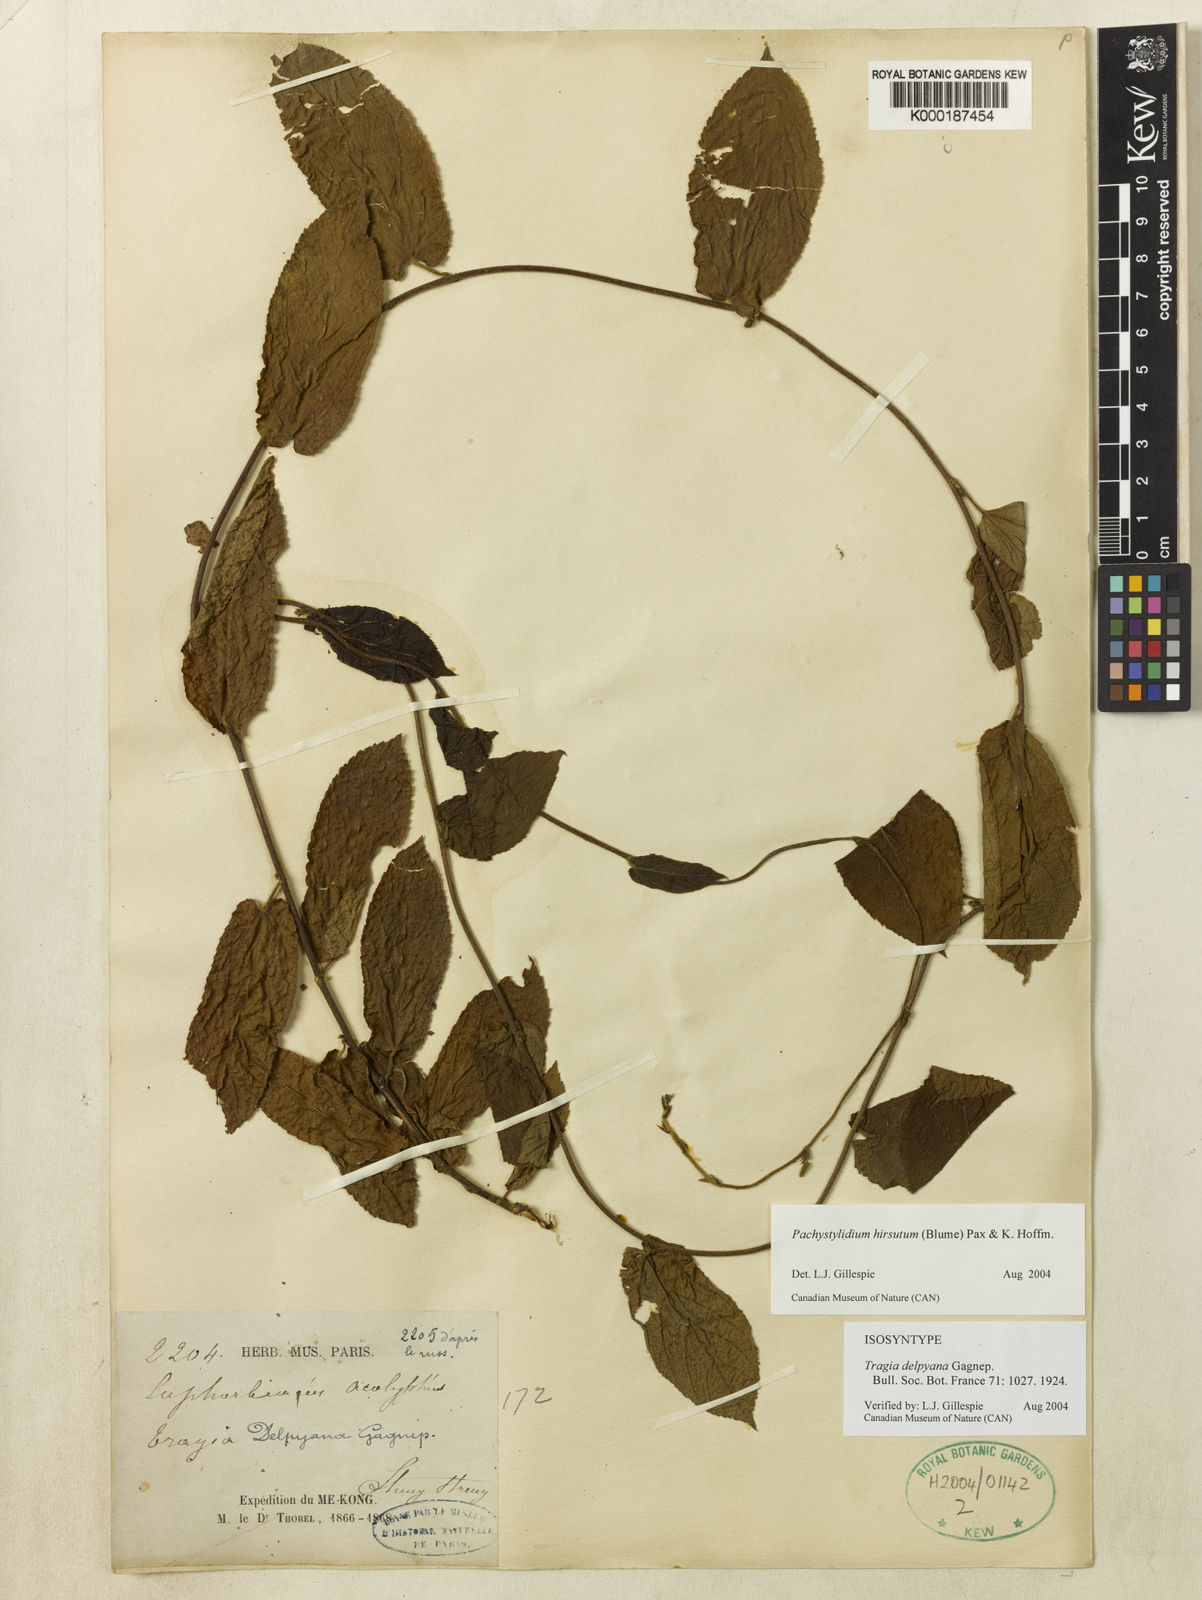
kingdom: Plantae
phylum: Tracheophyta
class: Magnoliopsida
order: Malpighiales
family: Euphorbiaceae
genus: Pachystylidium
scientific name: Pachystylidium hirsutum
